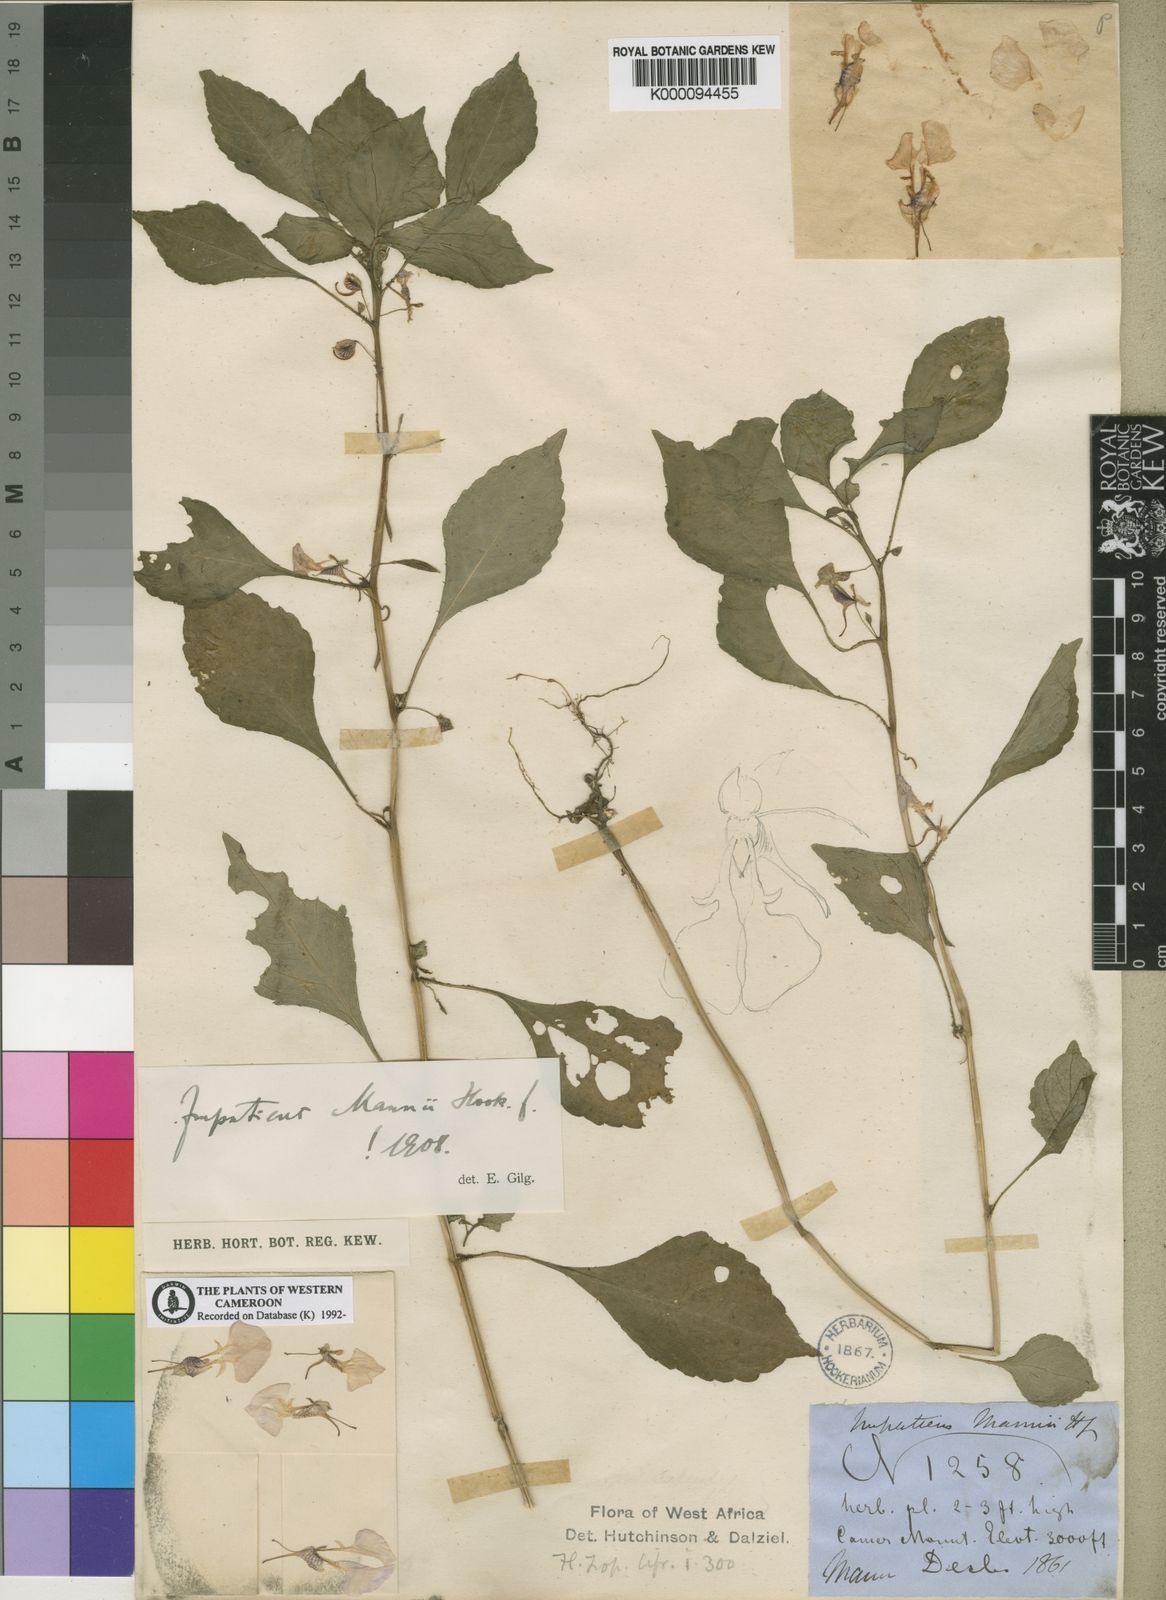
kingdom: Plantae
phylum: Tracheophyta
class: Magnoliopsida
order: Ericales
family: Balsaminaceae
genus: Impatiens
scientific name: Impatiens mannii
